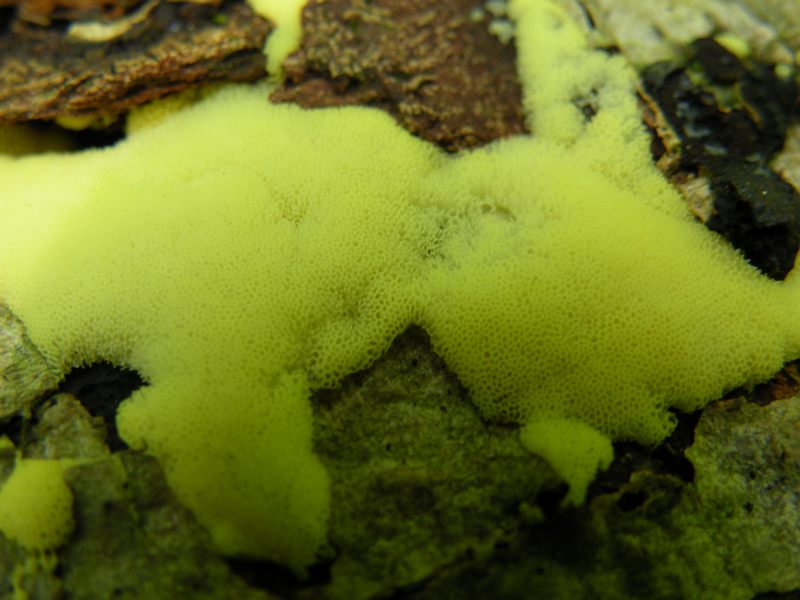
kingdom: Protozoa
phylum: Mycetozoa
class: Protosteliomycetes
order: Ceratiomyxales
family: Ceratiomyxaceae
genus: Ceratiomyxa
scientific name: Ceratiomyxa fruticulosa
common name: Honeycomb coral slime mold
